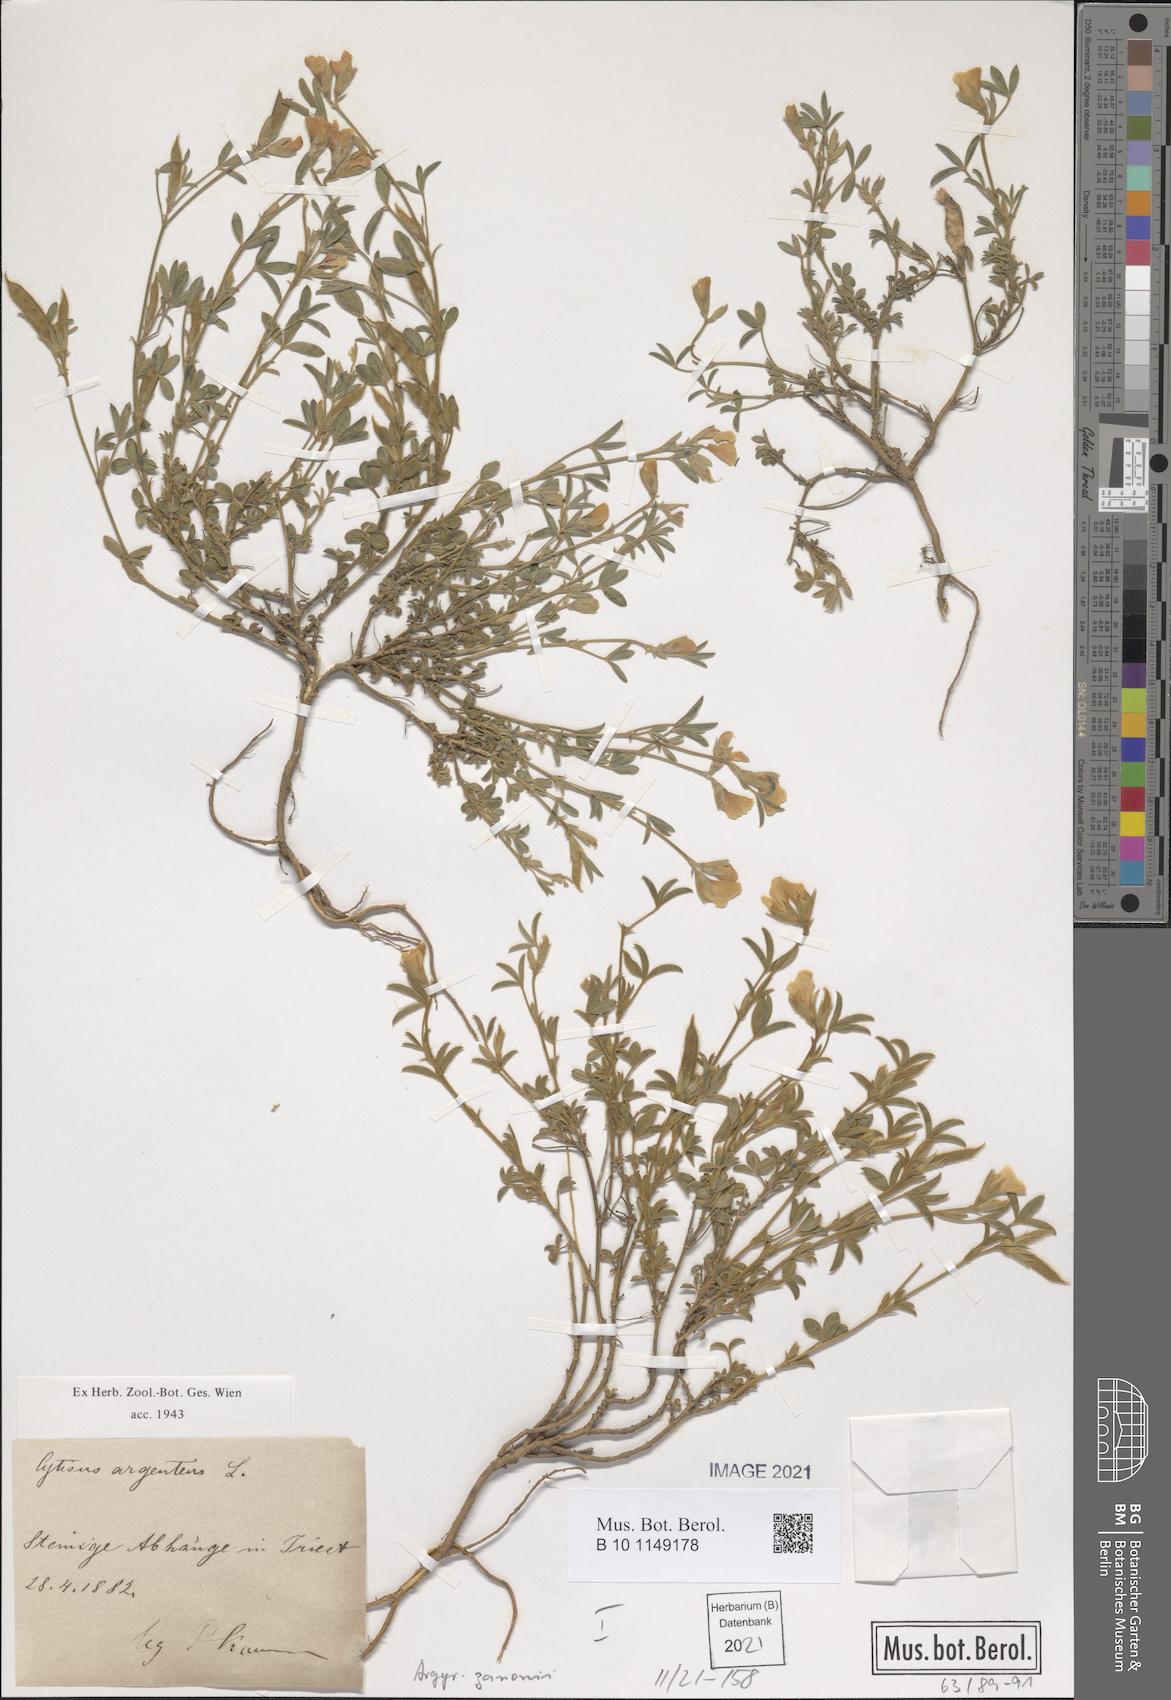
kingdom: Plantae
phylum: Tracheophyta
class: Magnoliopsida
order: Fabales
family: Fabaceae
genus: Argyrolobium
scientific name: Argyrolobium zanonii
